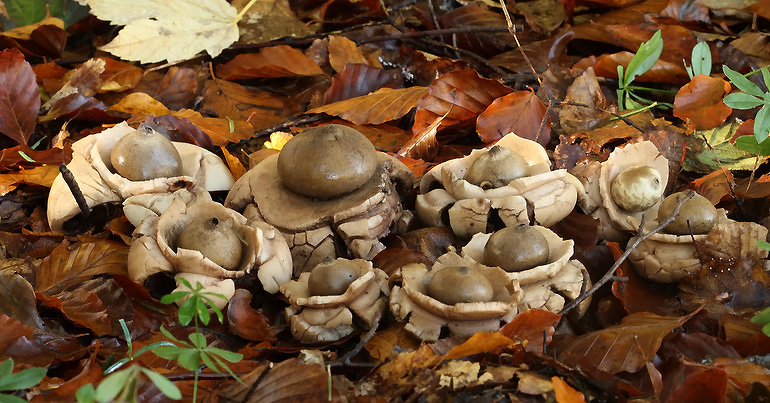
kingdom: Fungi
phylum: Basidiomycota
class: Agaricomycetes
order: Geastrales
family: Geastraceae
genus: Geastrum
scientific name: Geastrum michelianum
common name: kødet stjernebold
